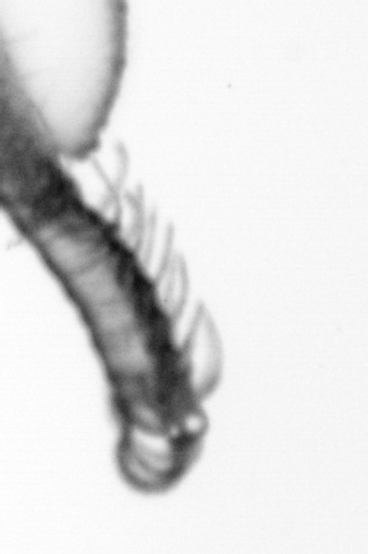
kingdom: Animalia
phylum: Annelida
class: Polychaeta
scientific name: Polychaeta
